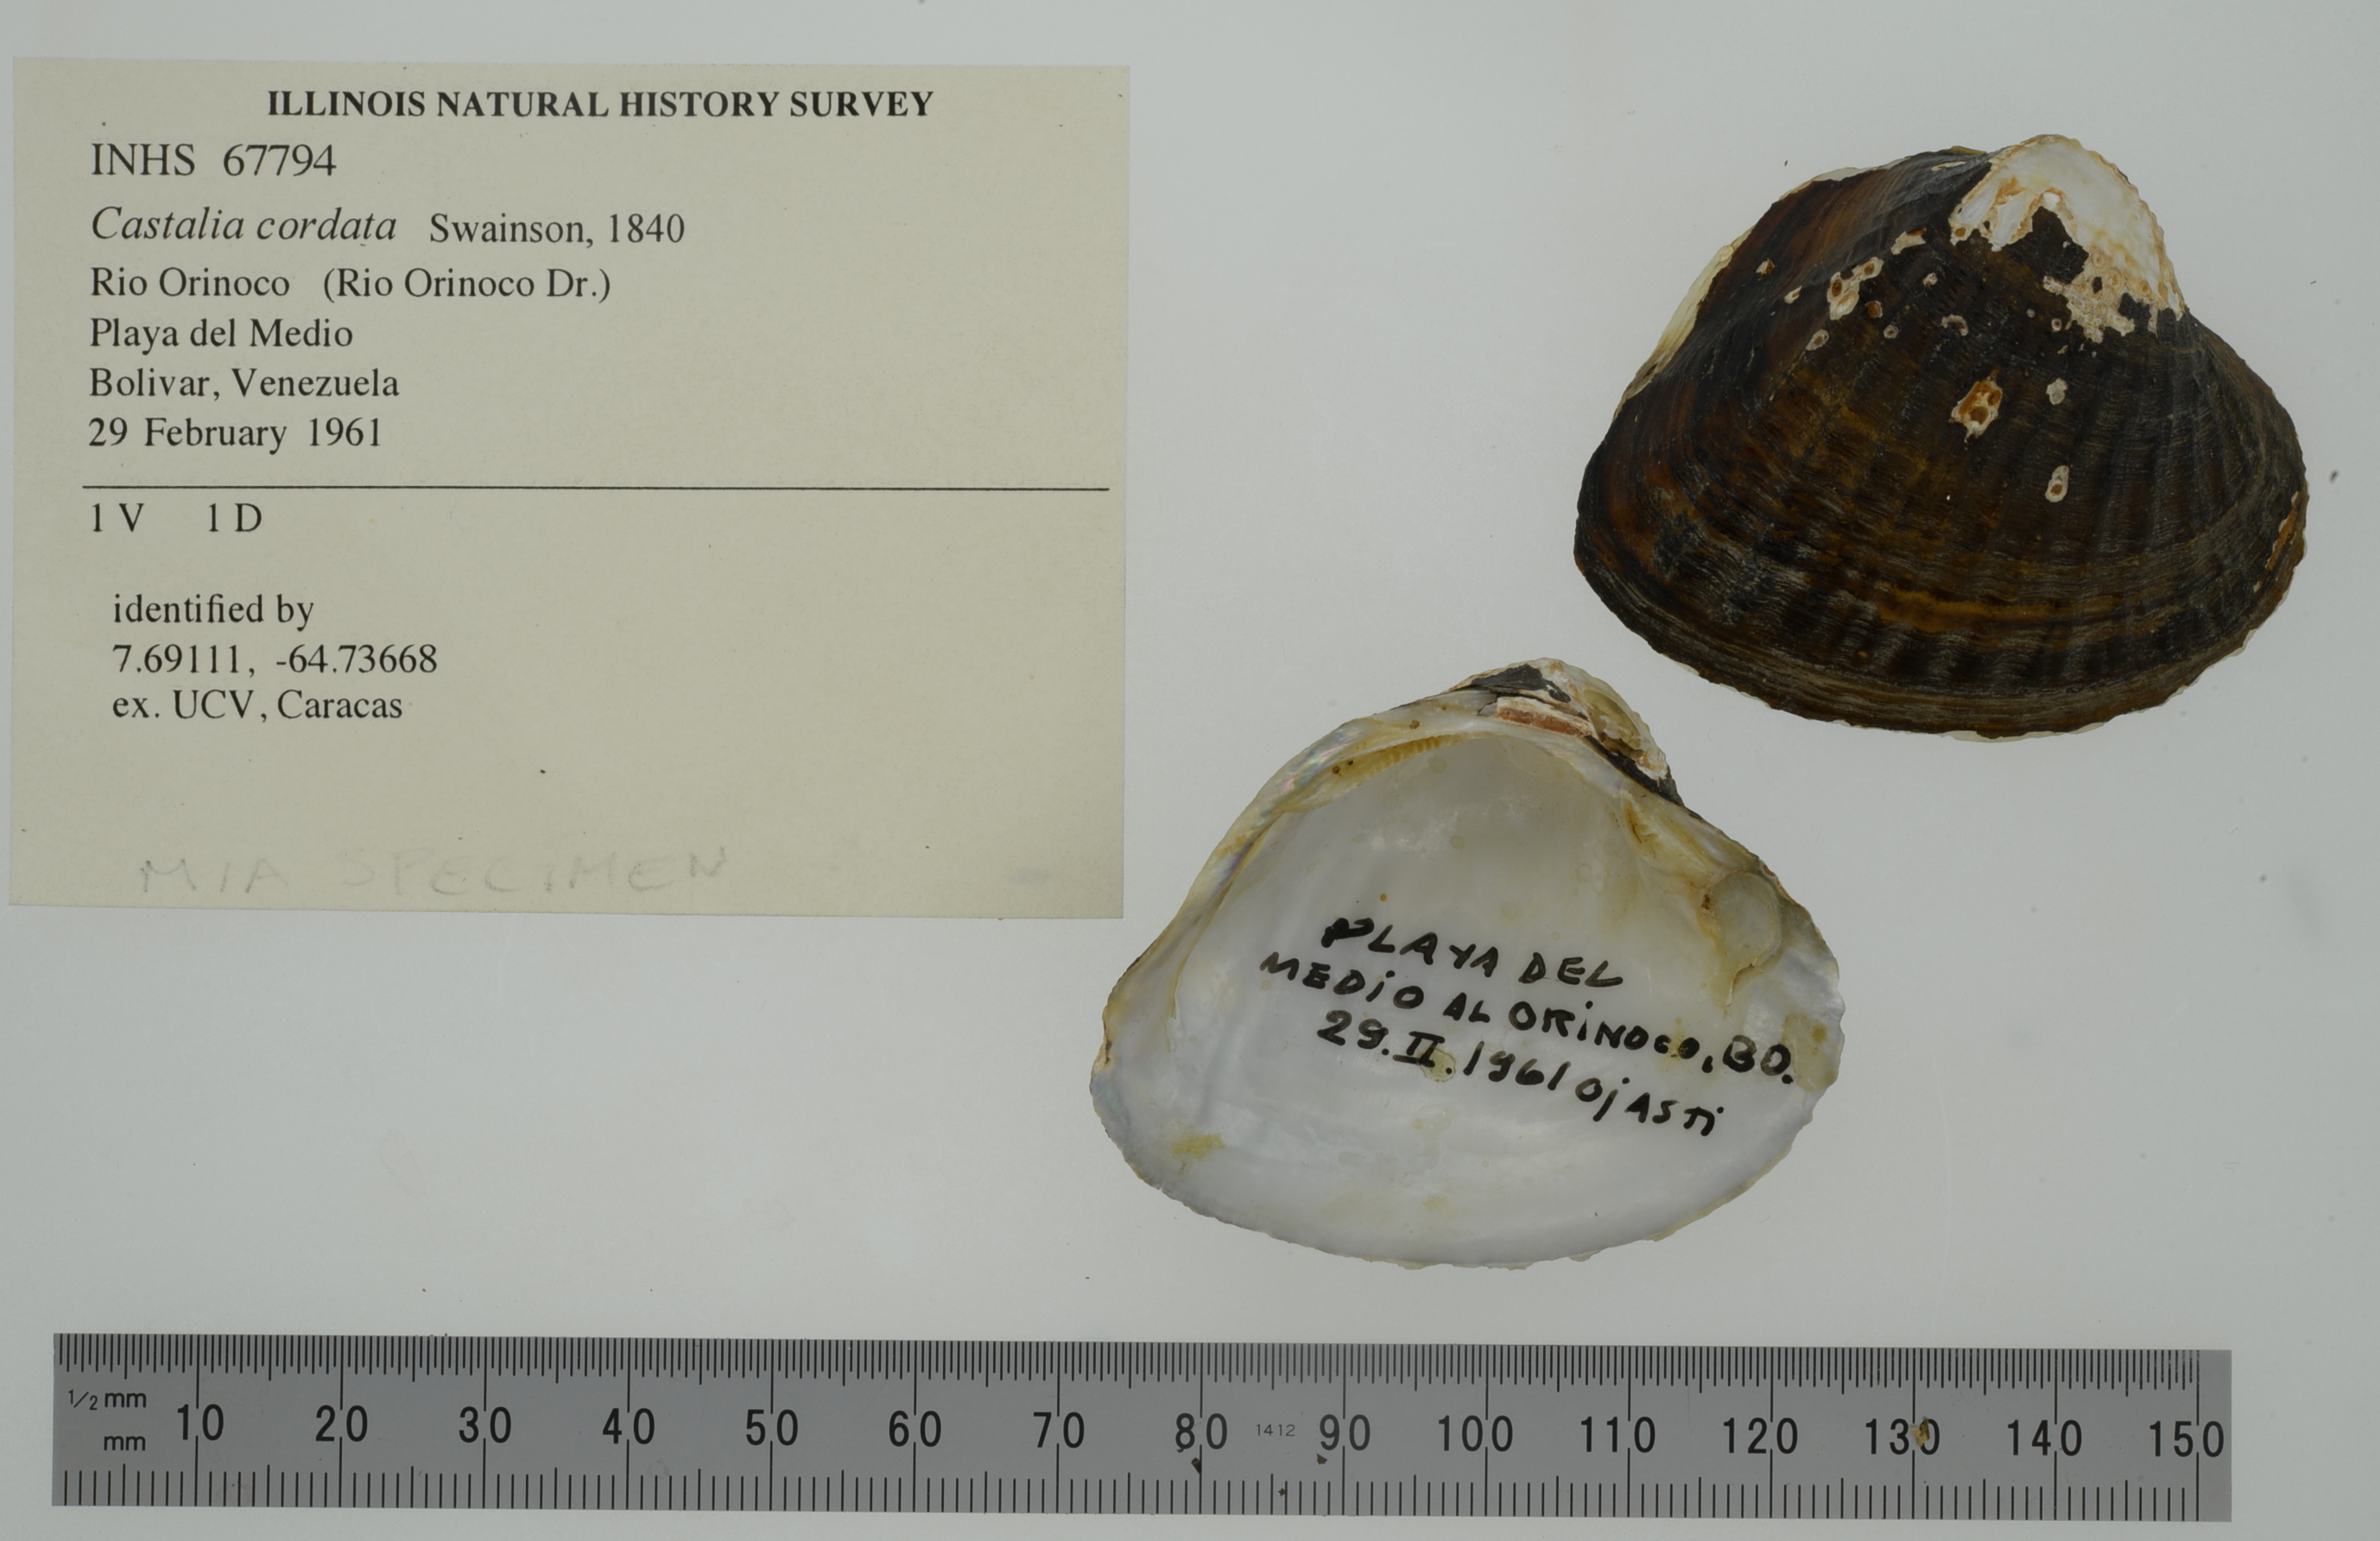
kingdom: Animalia
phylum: Mollusca
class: Bivalvia
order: Unionida
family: Hyriidae
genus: Castalia
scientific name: Castalia cordata
